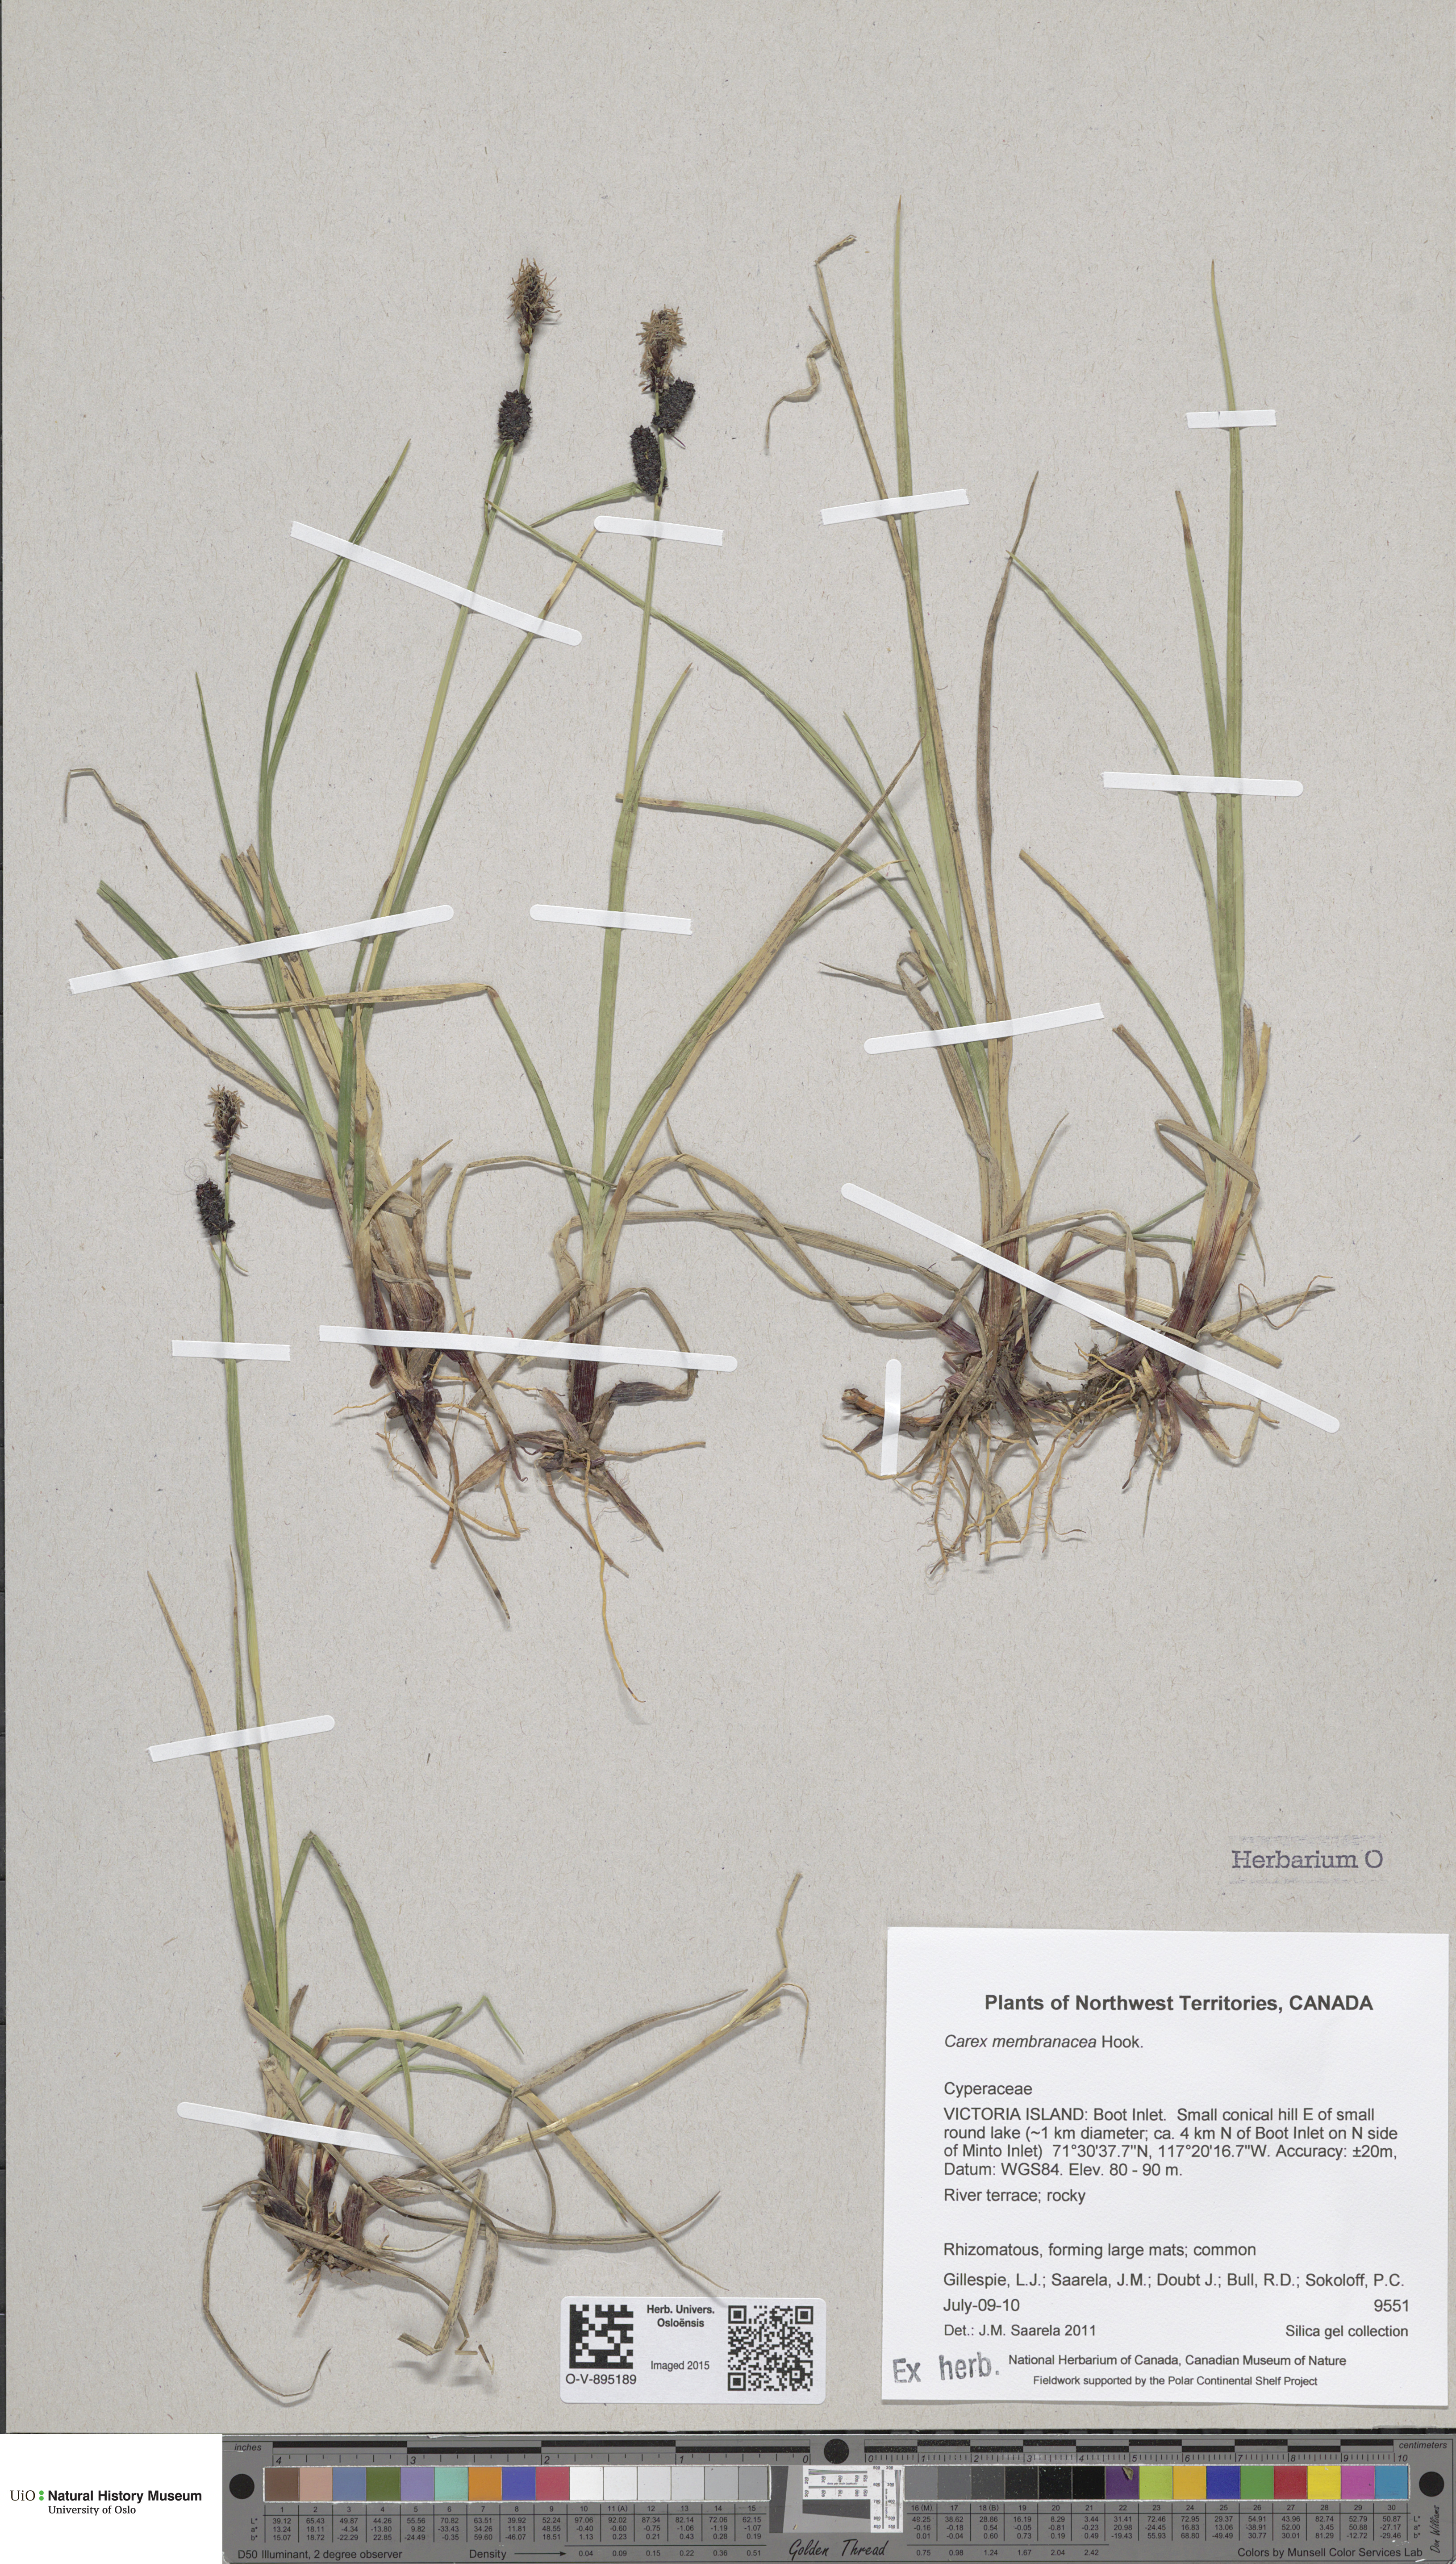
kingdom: Plantae
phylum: Tracheophyta
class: Liliopsida
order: Poales
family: Cyperaceae
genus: Carex
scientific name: Carex membranacea
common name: Fragile sedge
